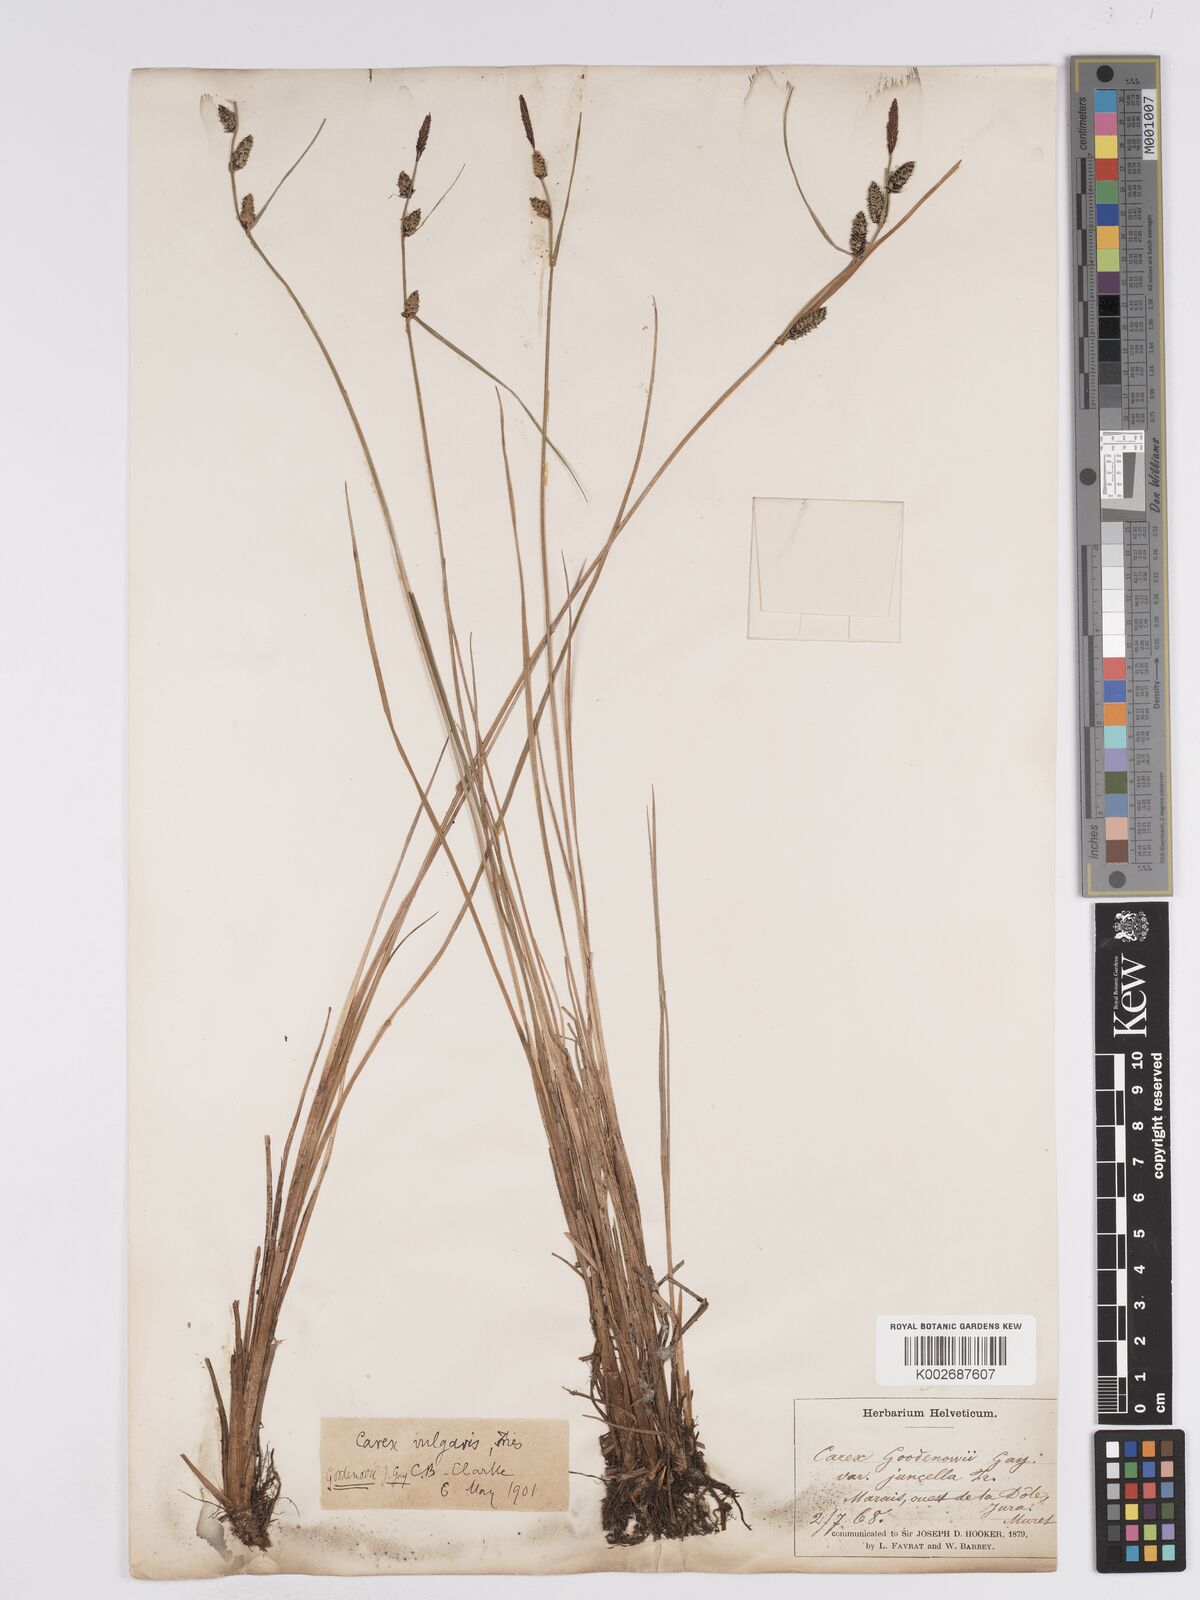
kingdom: Plantae
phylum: Tracheophyta
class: Liliopsida
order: Poales
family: Cyperaceae
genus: Carex
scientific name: Carex
